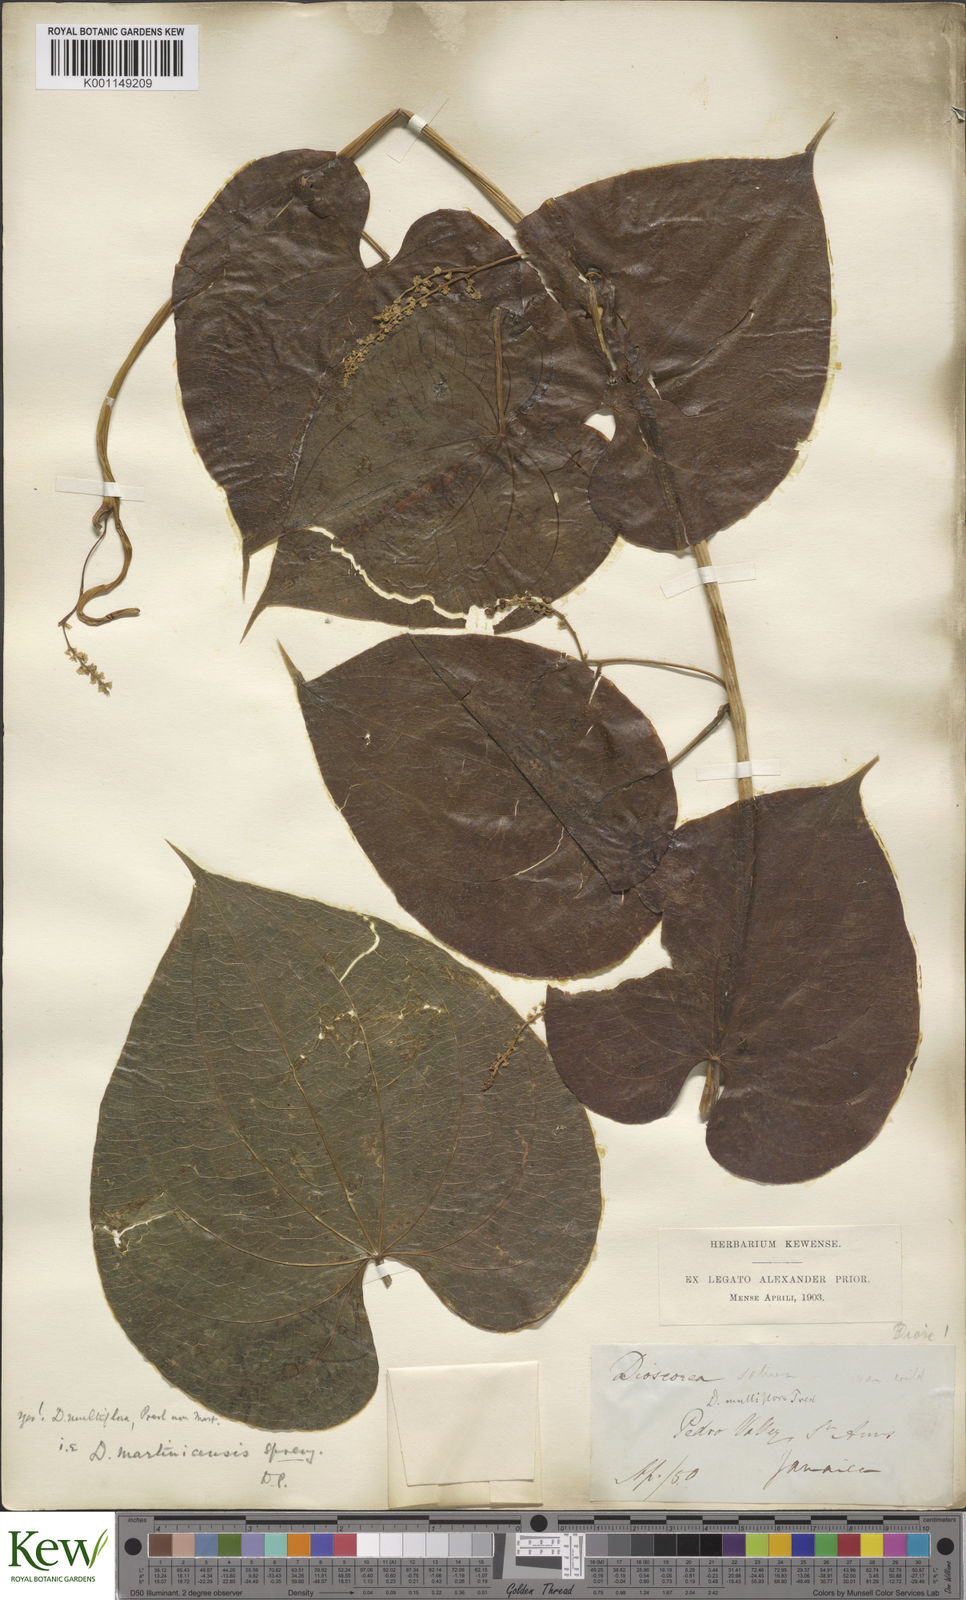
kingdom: Plantae
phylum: Tracheophyta
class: Liliopsida
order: Dioscoreales
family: Dioscoreaceae
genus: Dioscorea
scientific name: Dioscorea
